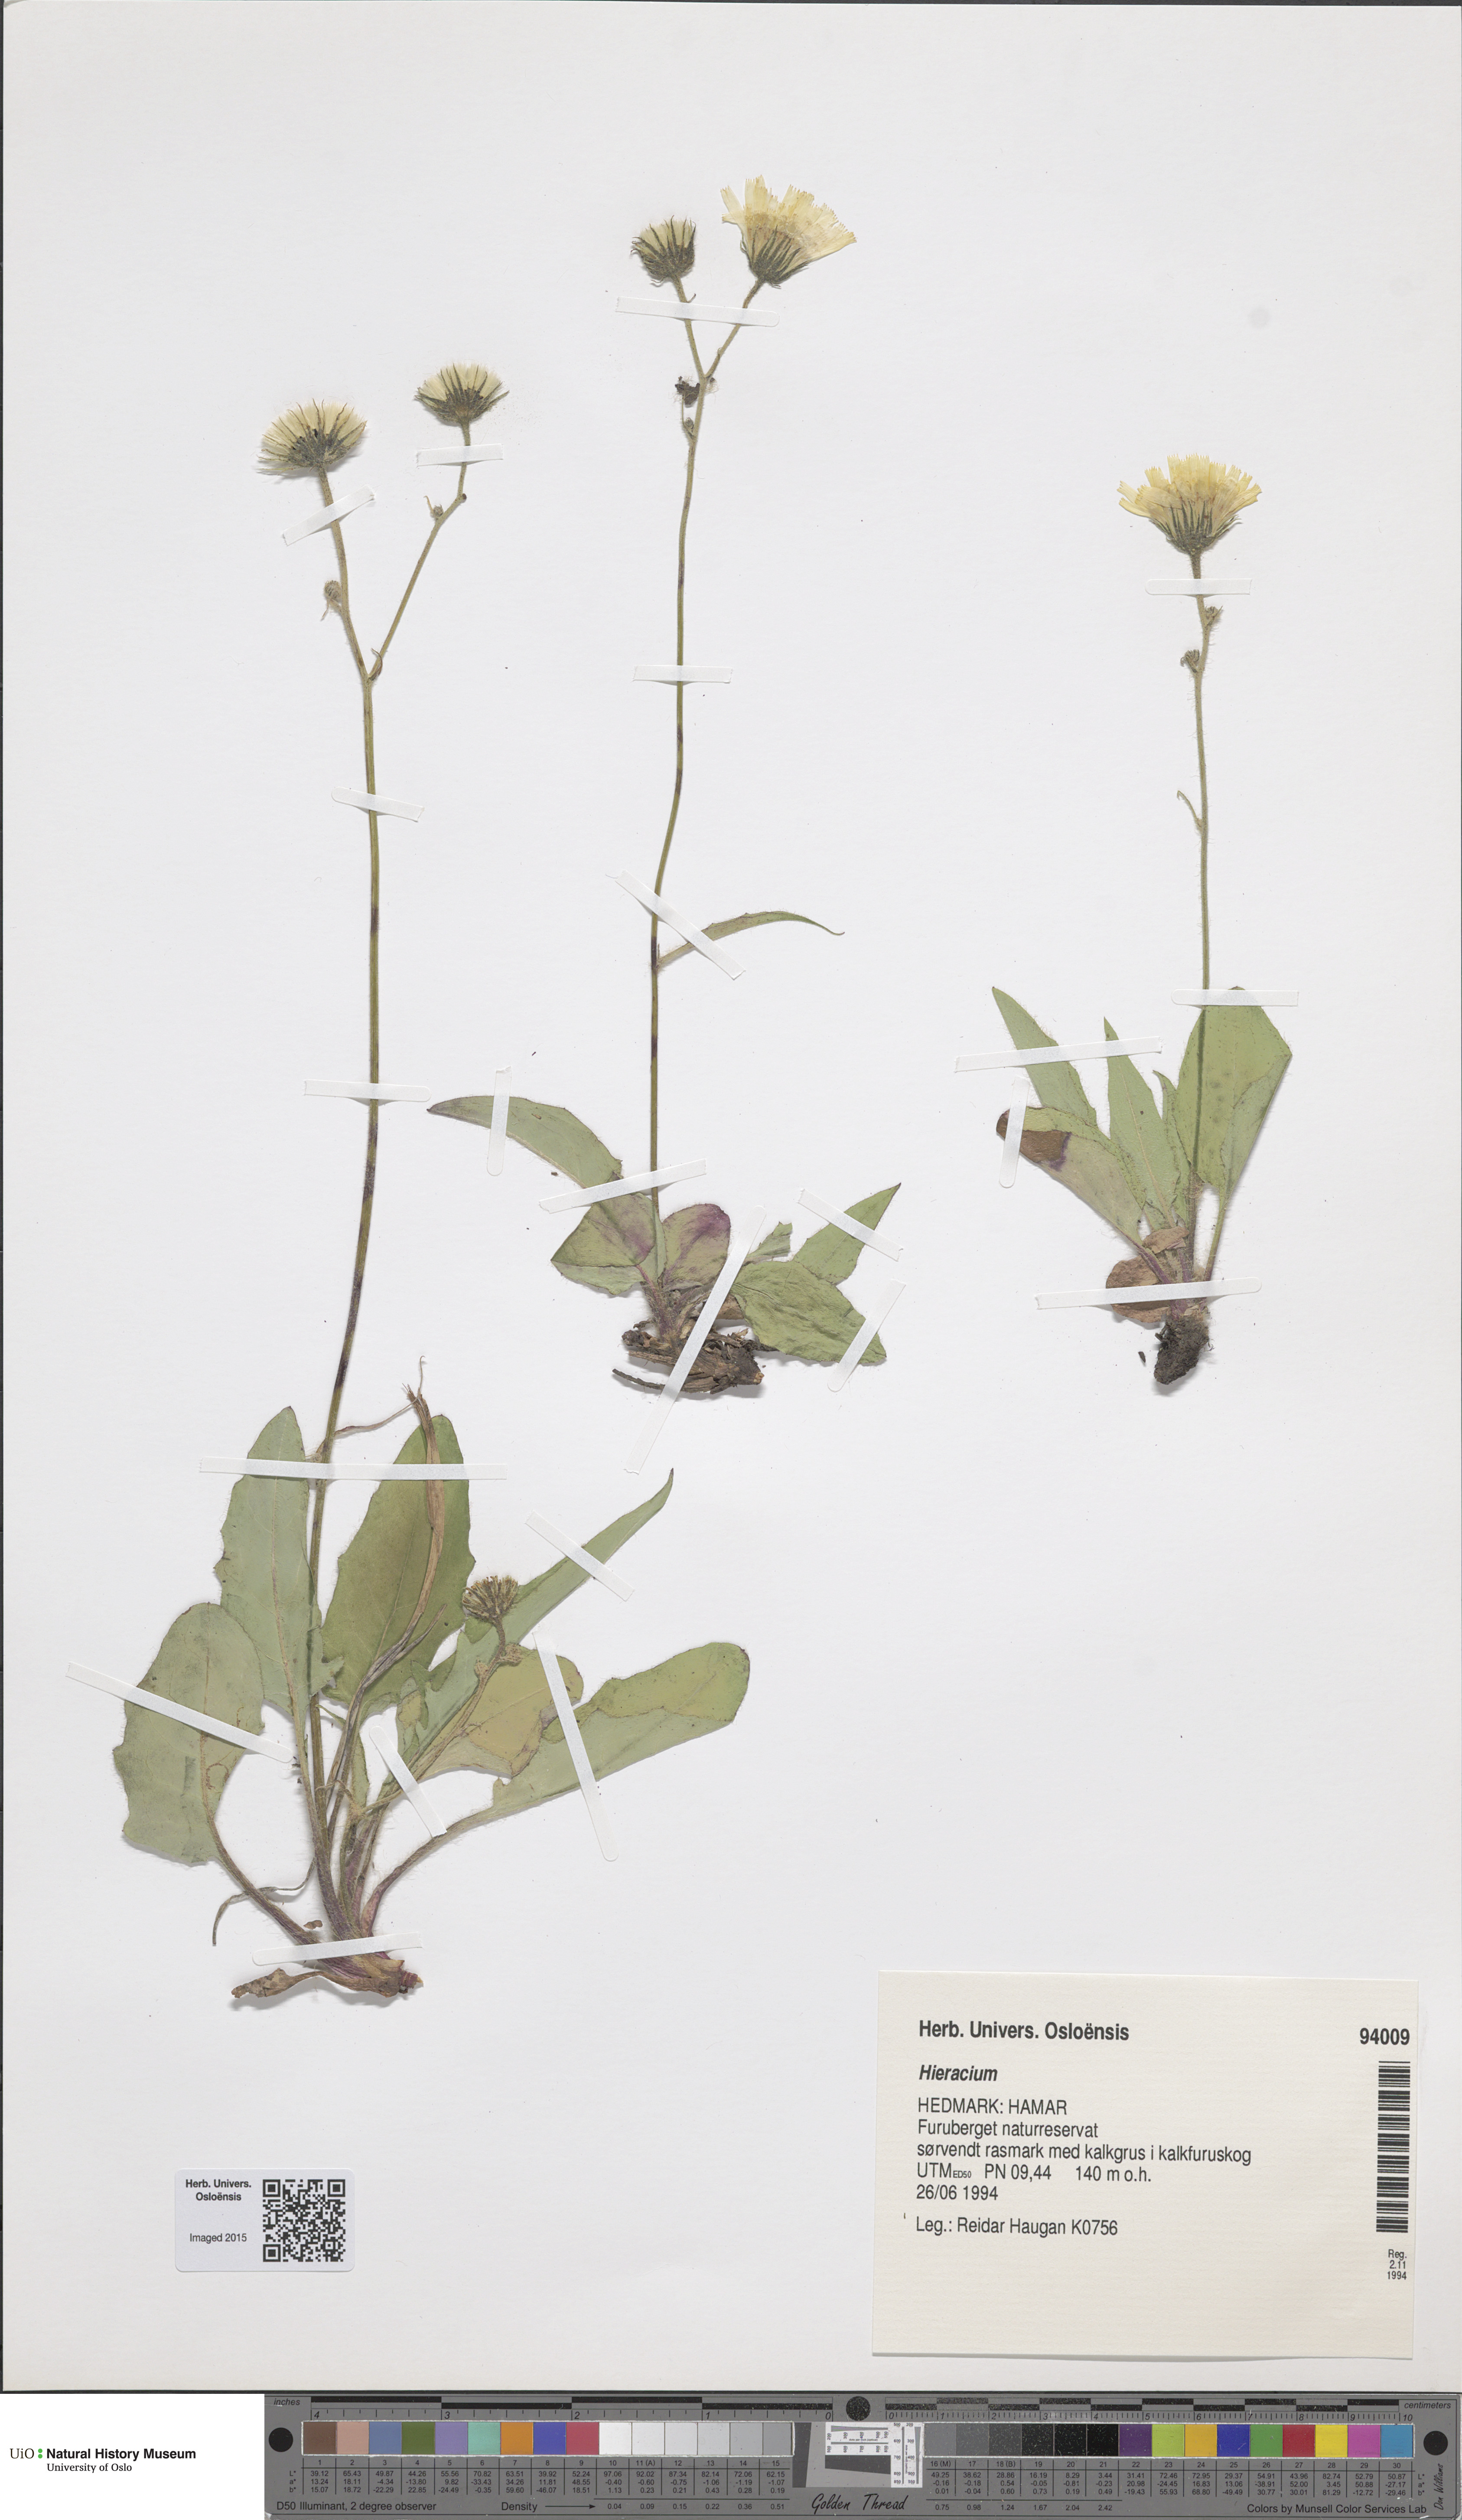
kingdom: Plantae
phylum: Tracheophyta
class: Magnoliopsida
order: Asterales
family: Asteraceae
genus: Hieracium
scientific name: Hieracium
